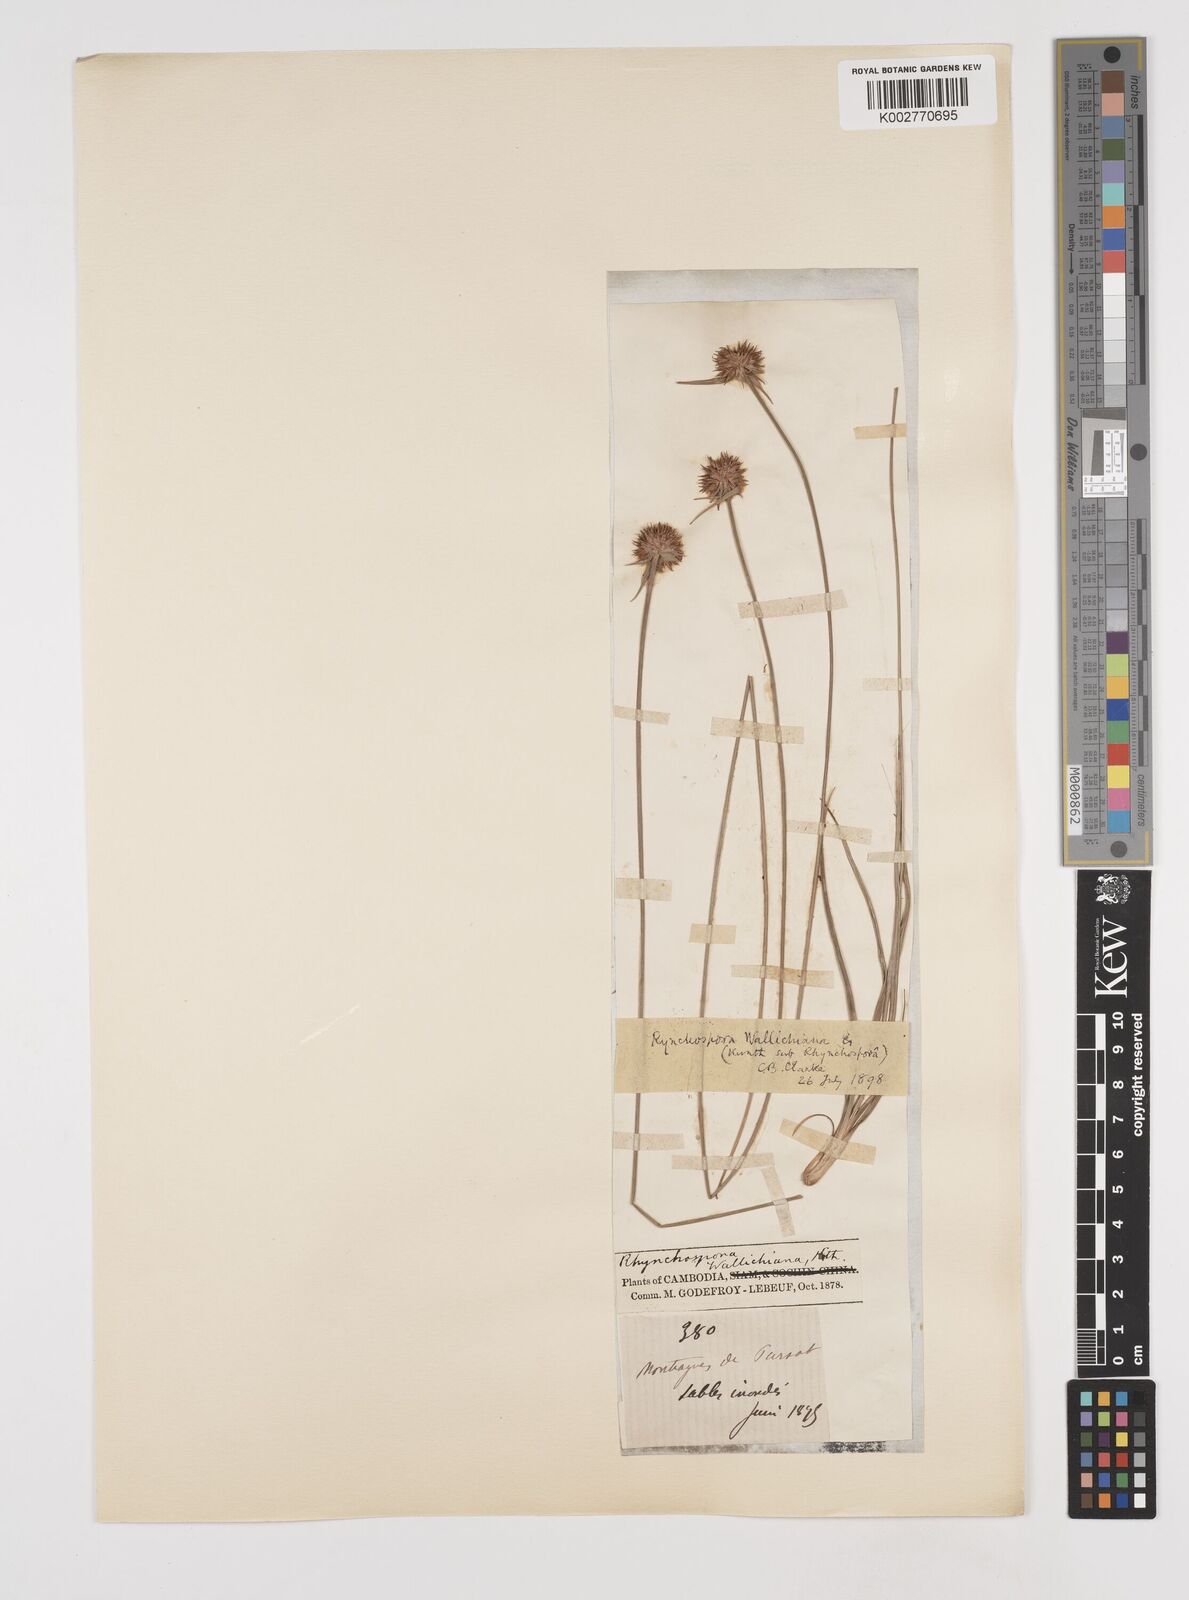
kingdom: Plantae
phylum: Tracheophyta
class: Liliopsida
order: Poales
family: Cyperaceae
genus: Rhynchospora
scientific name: Rhynchospora rubra
